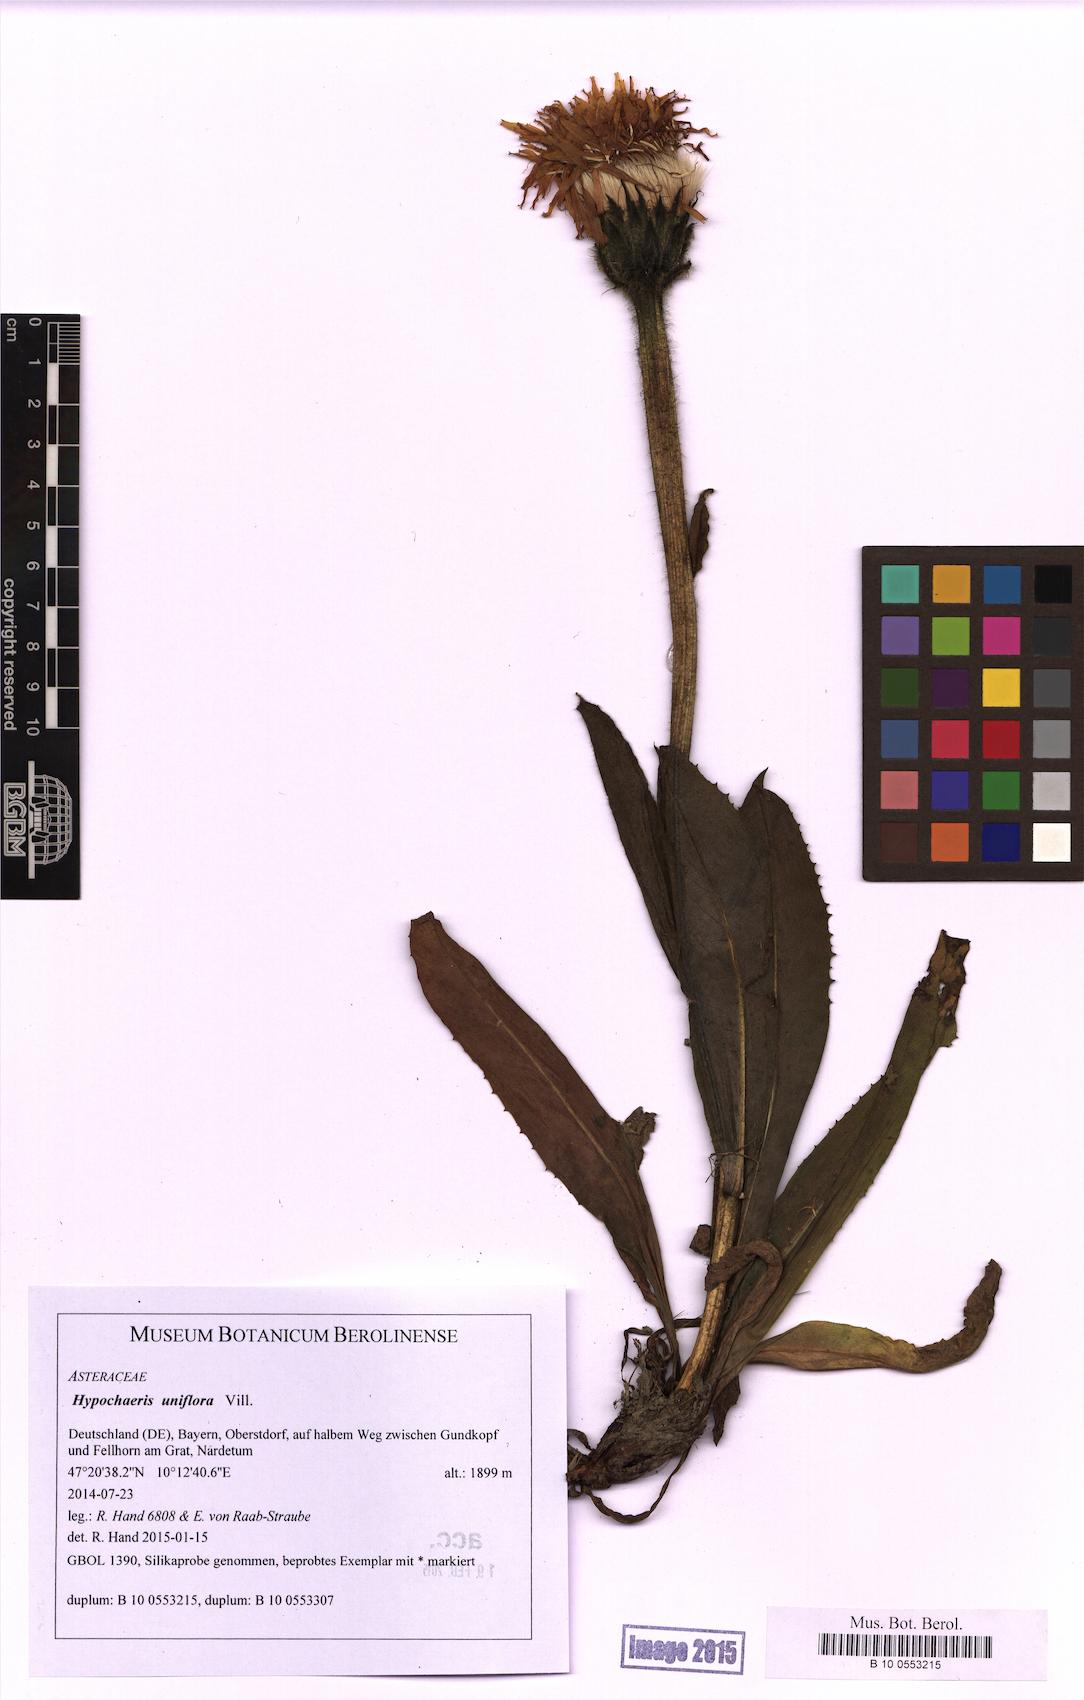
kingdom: Plantae
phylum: Tracheophyta
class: Magnoliopsida
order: Asterales
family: Asteraceae
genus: Trommsdorffia
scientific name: Trommsdorffia uniflora
